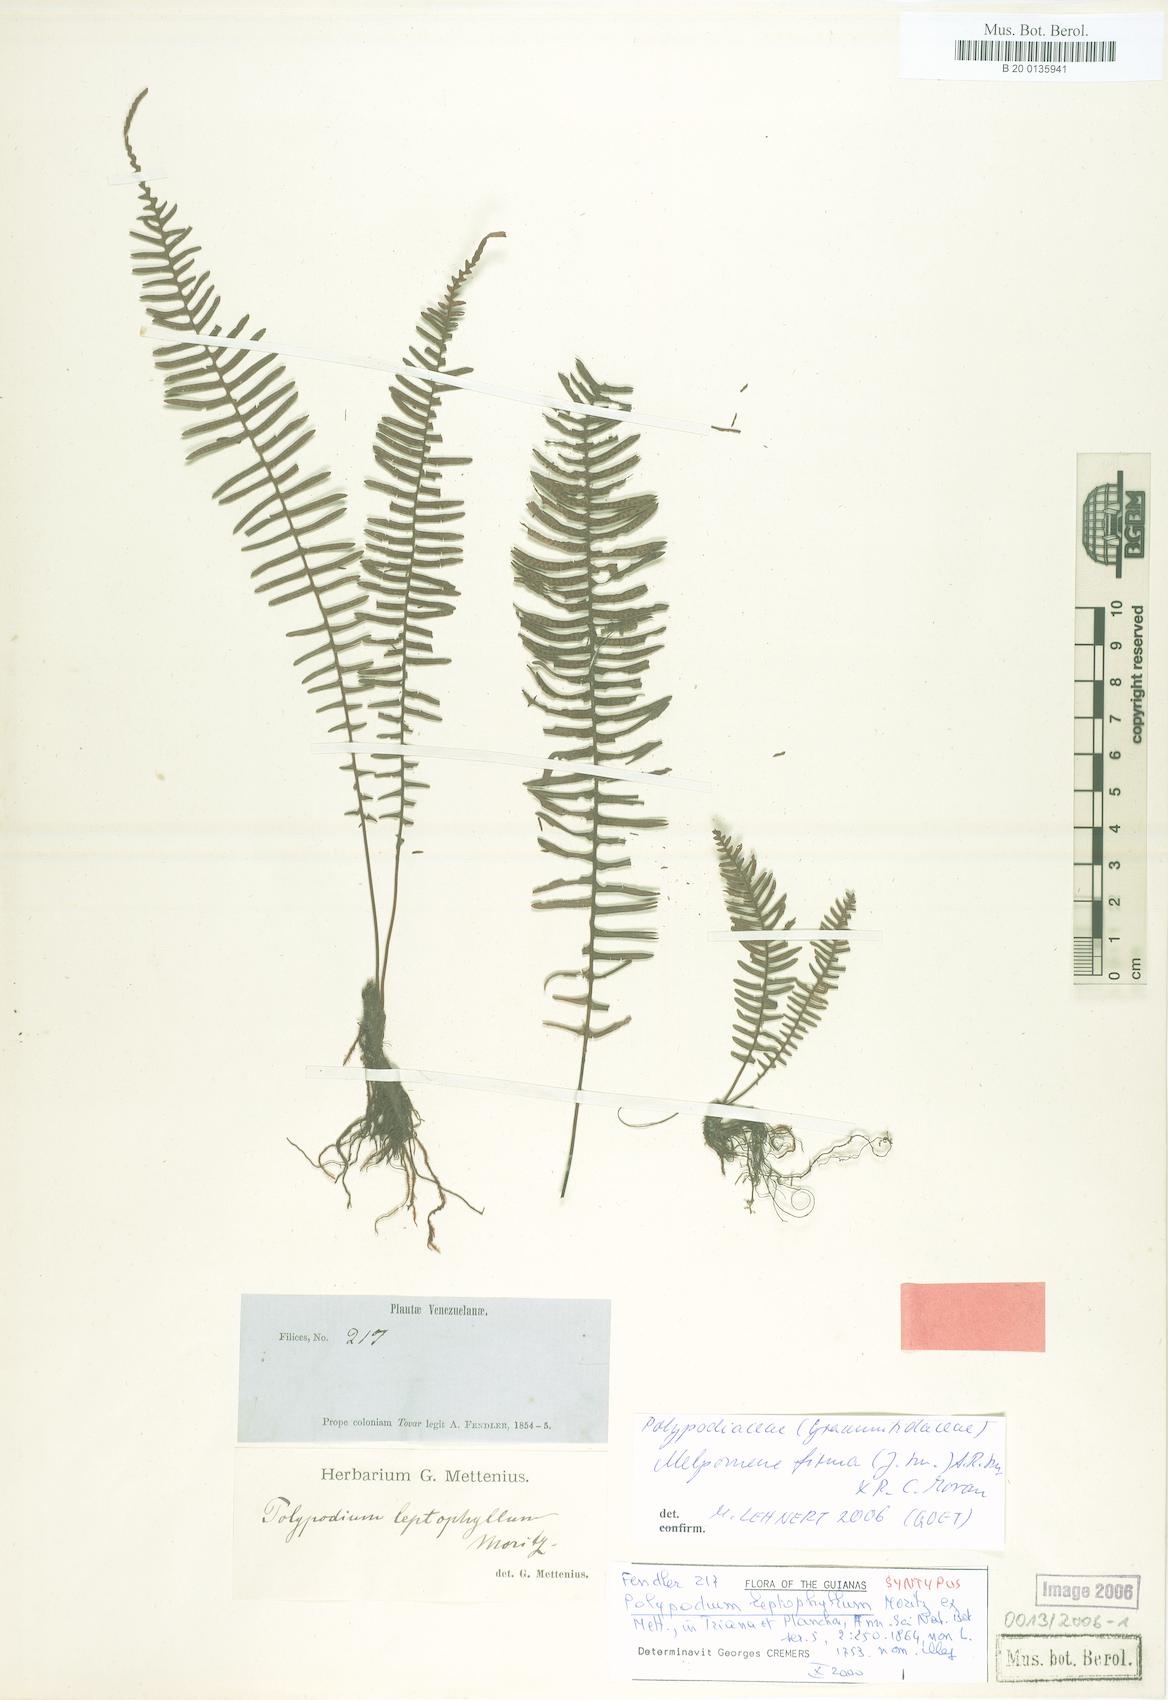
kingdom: Plantae
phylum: Tracheophyta
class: Polypodiopsida
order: Polypodiales
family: Polypodiaceae
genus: Melpomene
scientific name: Melpomene firma
